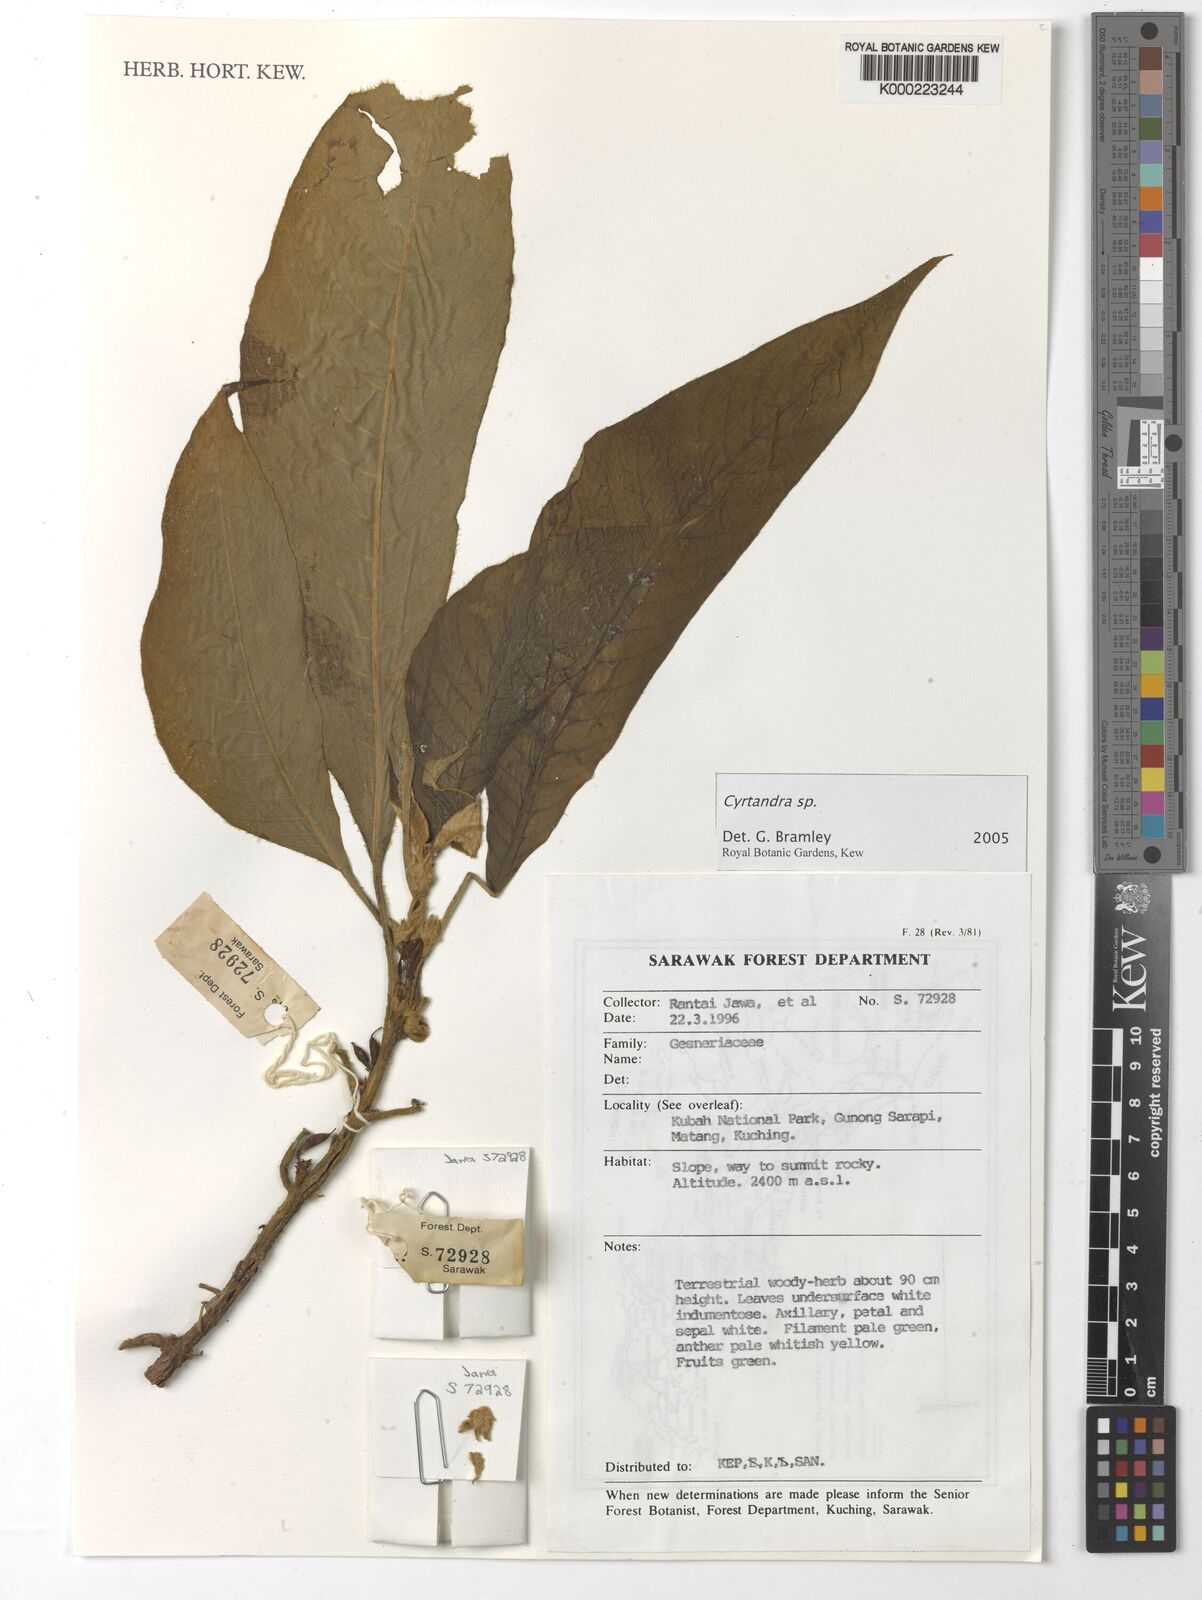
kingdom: Plantae
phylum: Tracheophyta
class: Magnoliopsida
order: Lamiales
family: Gesneriaceae
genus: Cyrtandra
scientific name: Cyrtandra
